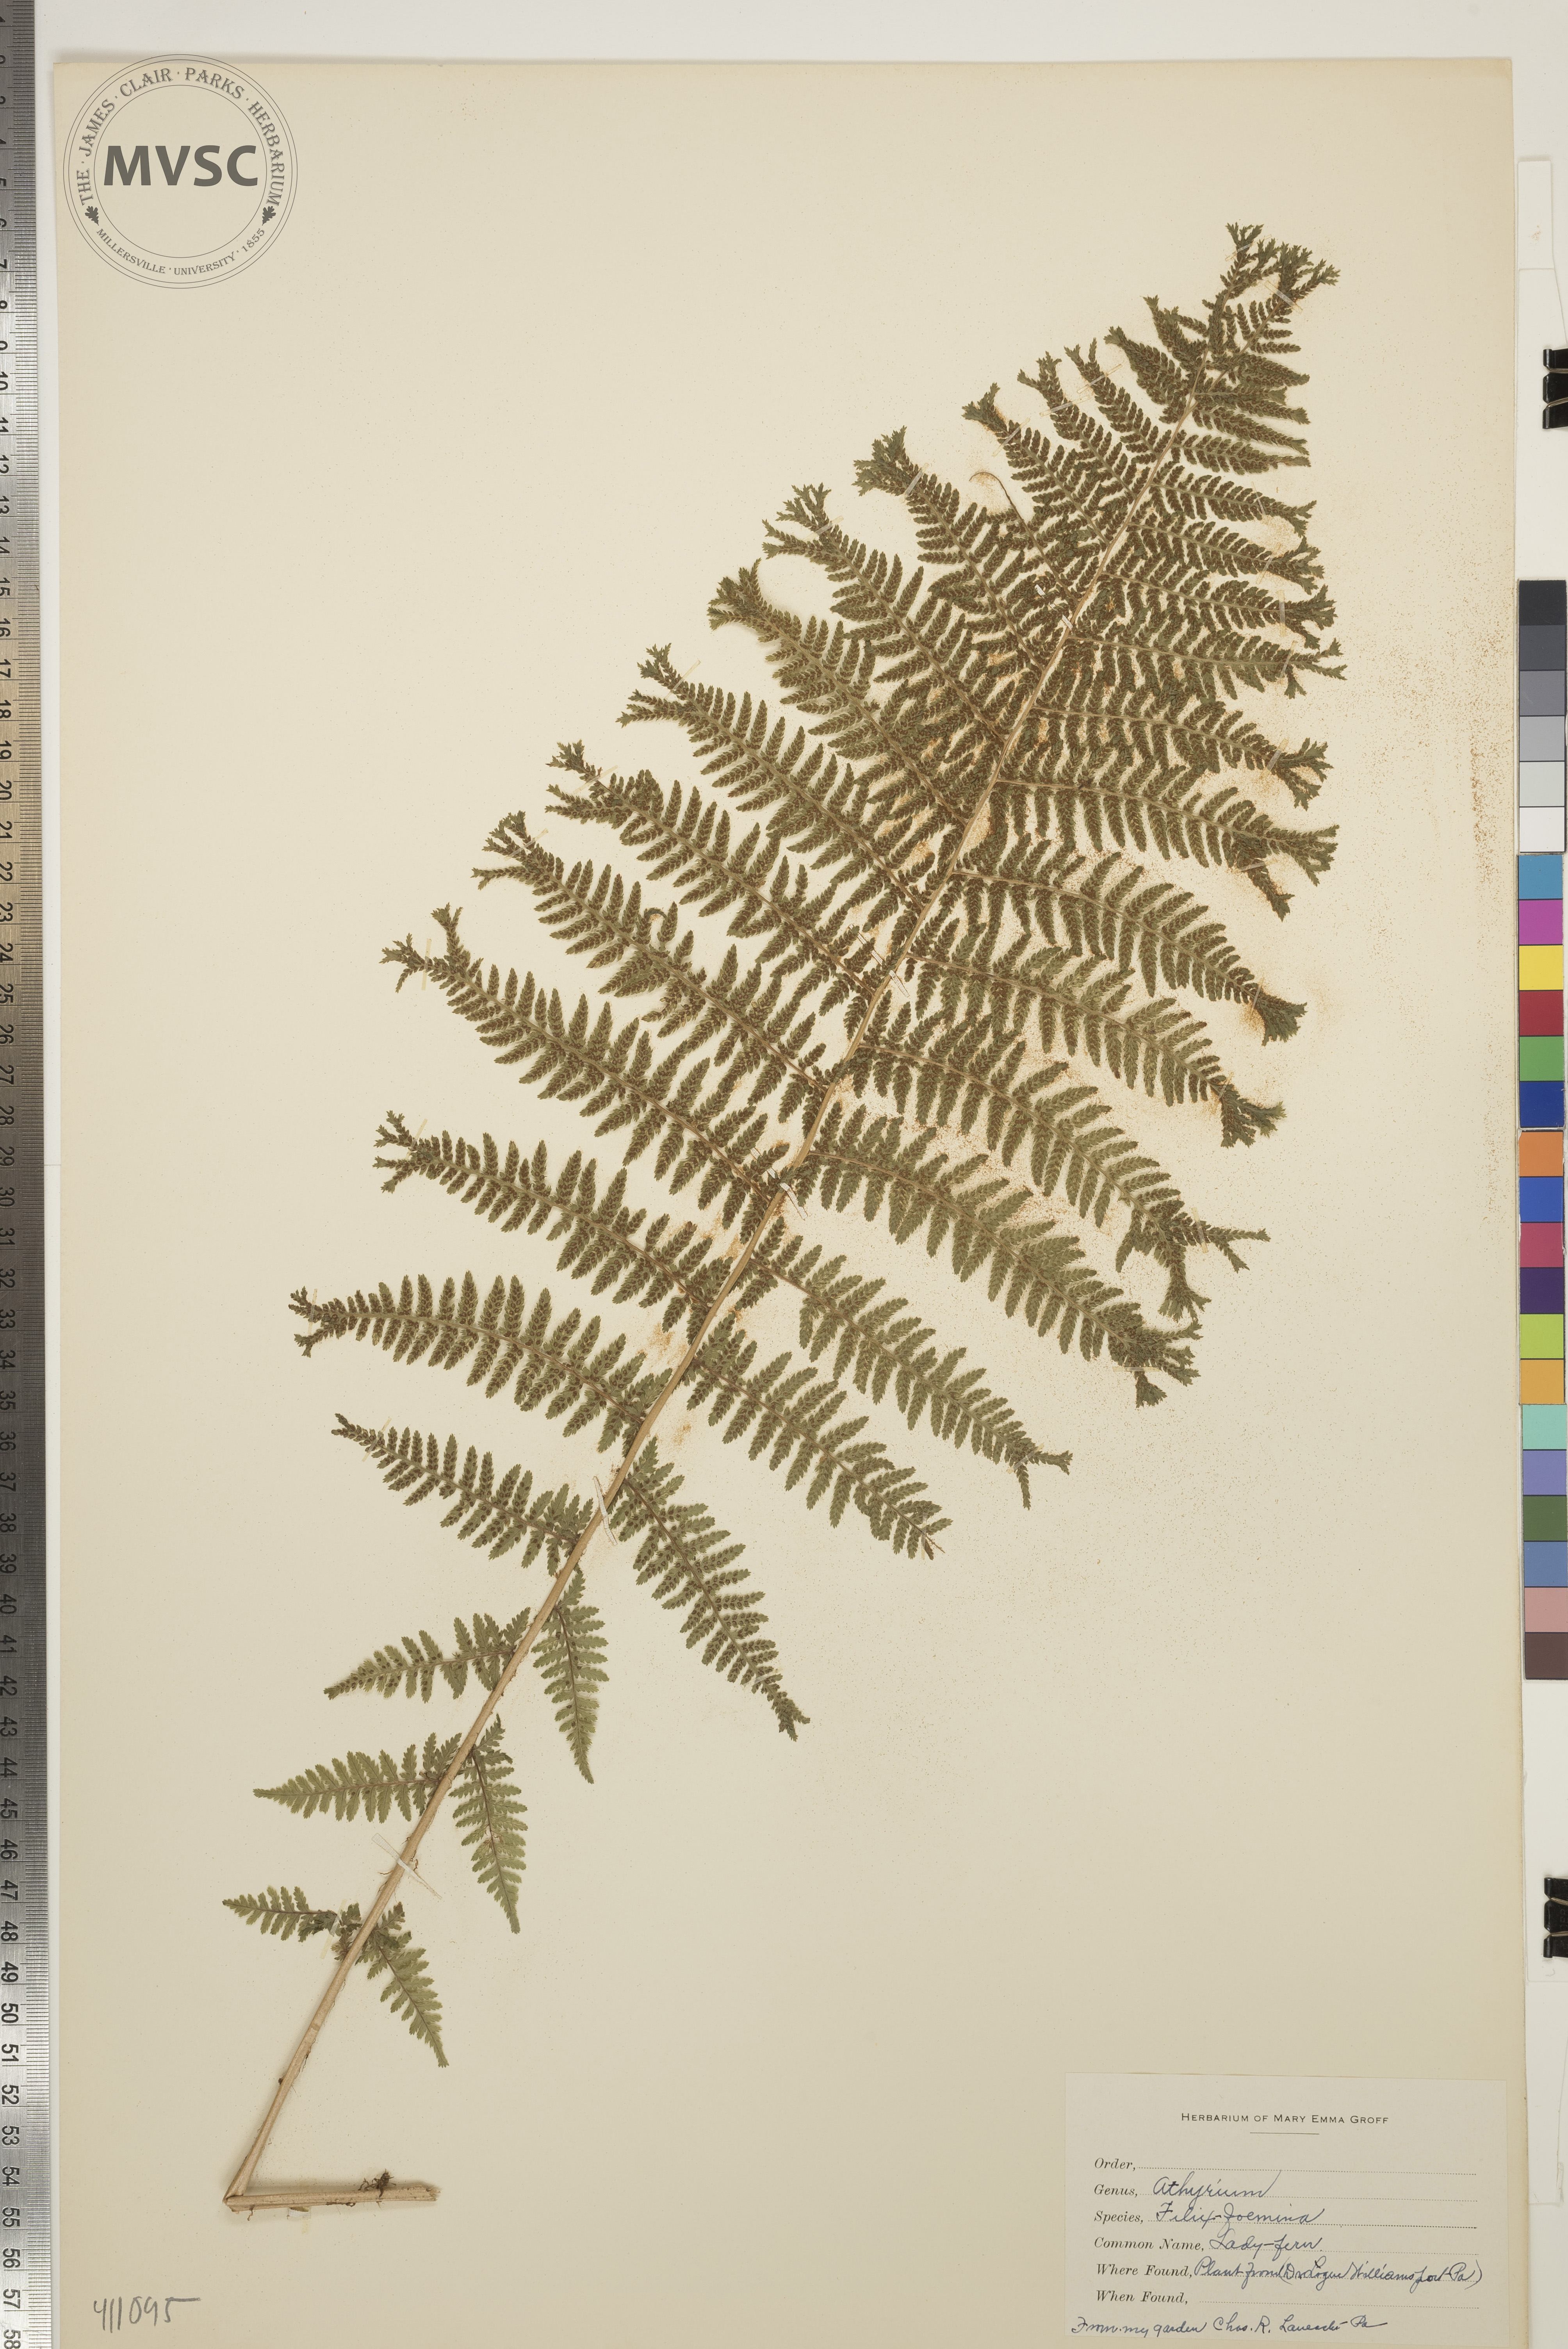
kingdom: Plantae
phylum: Tracheophyta
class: Polypodiopsida
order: Polypodiales
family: Athyriaceae
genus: Athyrium
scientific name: Athyrium filix-femina
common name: Lady Fern
